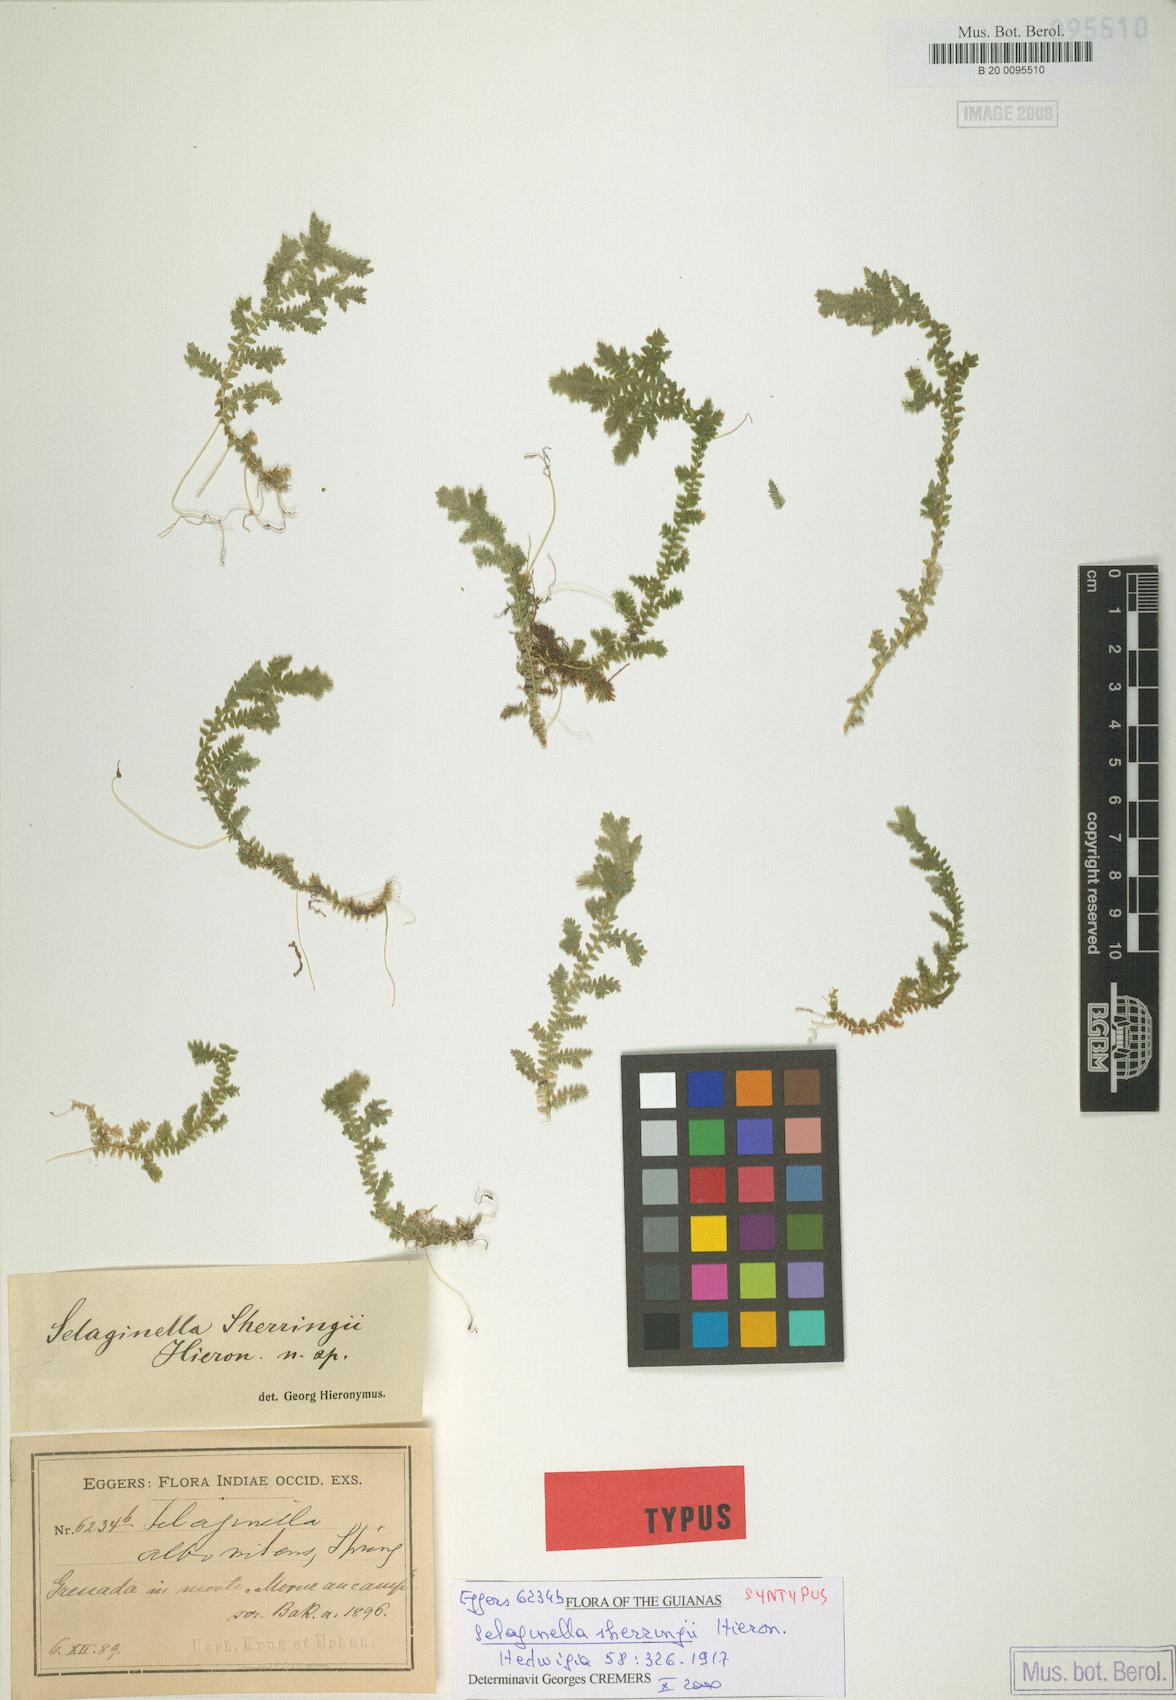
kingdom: Plantae
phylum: Tracheophyta
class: Lycopodiopsida
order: Selaginellales
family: Selaginellaceae
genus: Selaginella
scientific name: Selaginella substipitata
